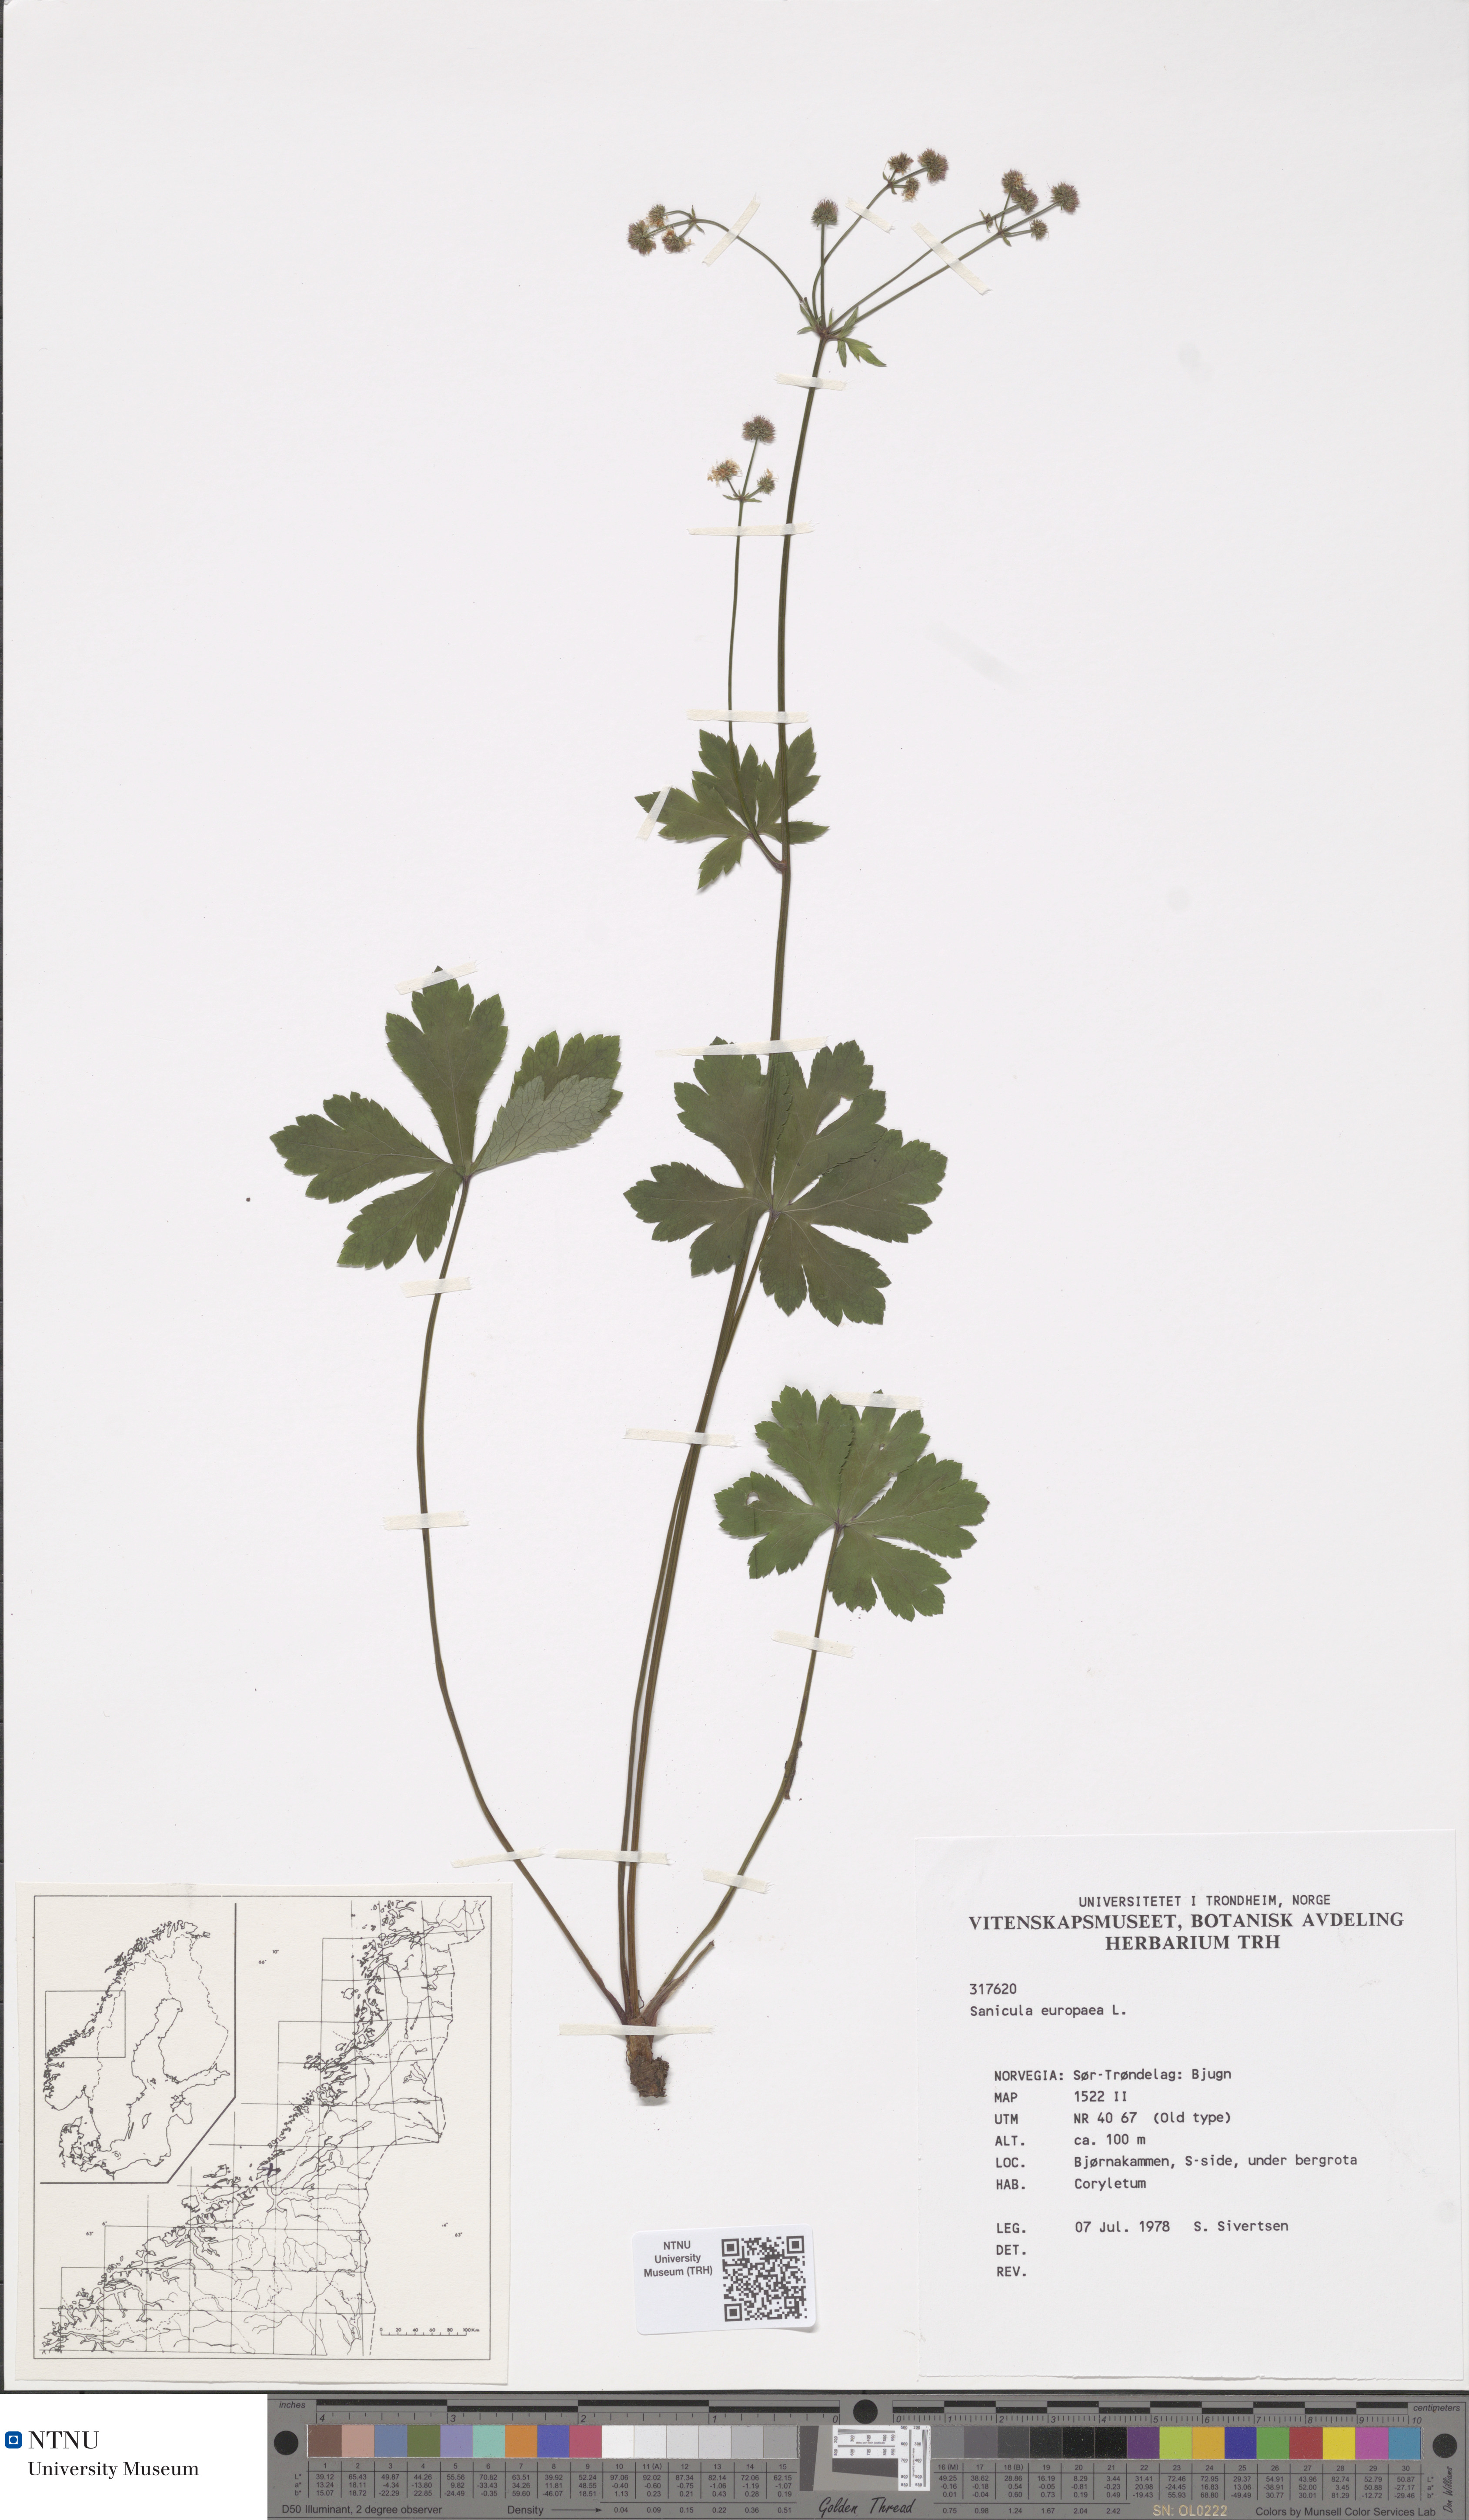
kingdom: Plantae
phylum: Tracheophyta
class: Magnoliopsida
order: Apiales
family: Apiaceae
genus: Sanicula
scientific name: Sanicula europaea
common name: Sanicle
